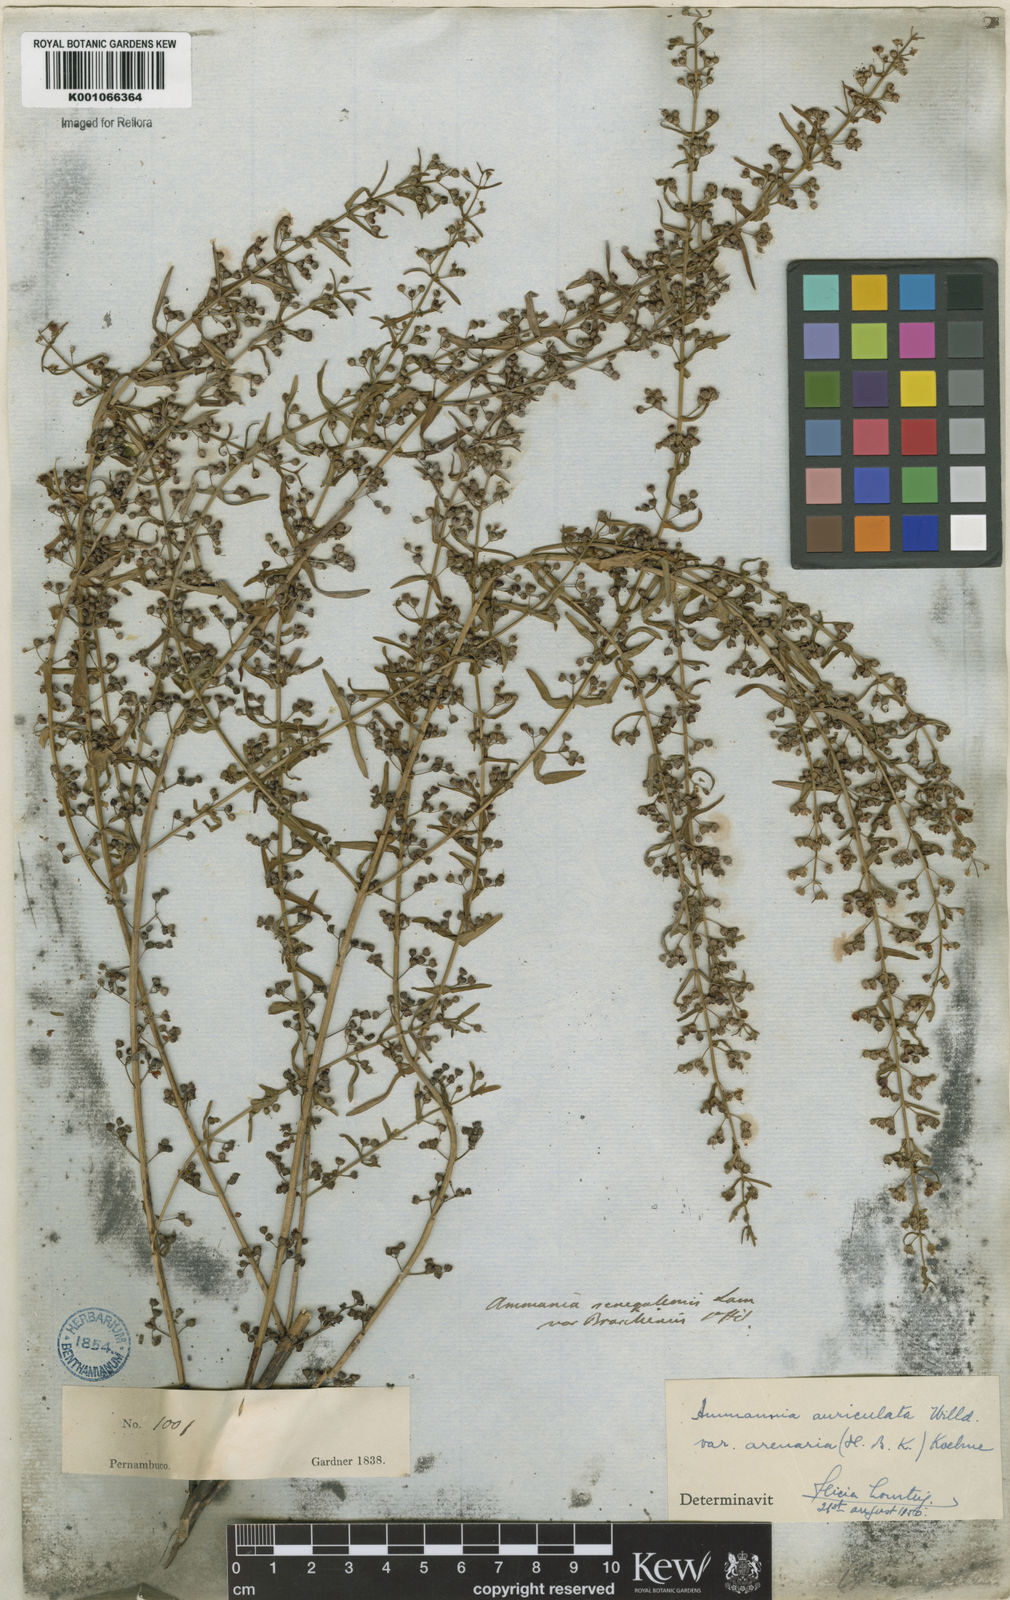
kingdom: Plantae
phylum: Tracheophyta
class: Magnoliopsida
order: Myrtales
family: Lythraceae
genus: Ammannia
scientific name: Ammannia auriculata
